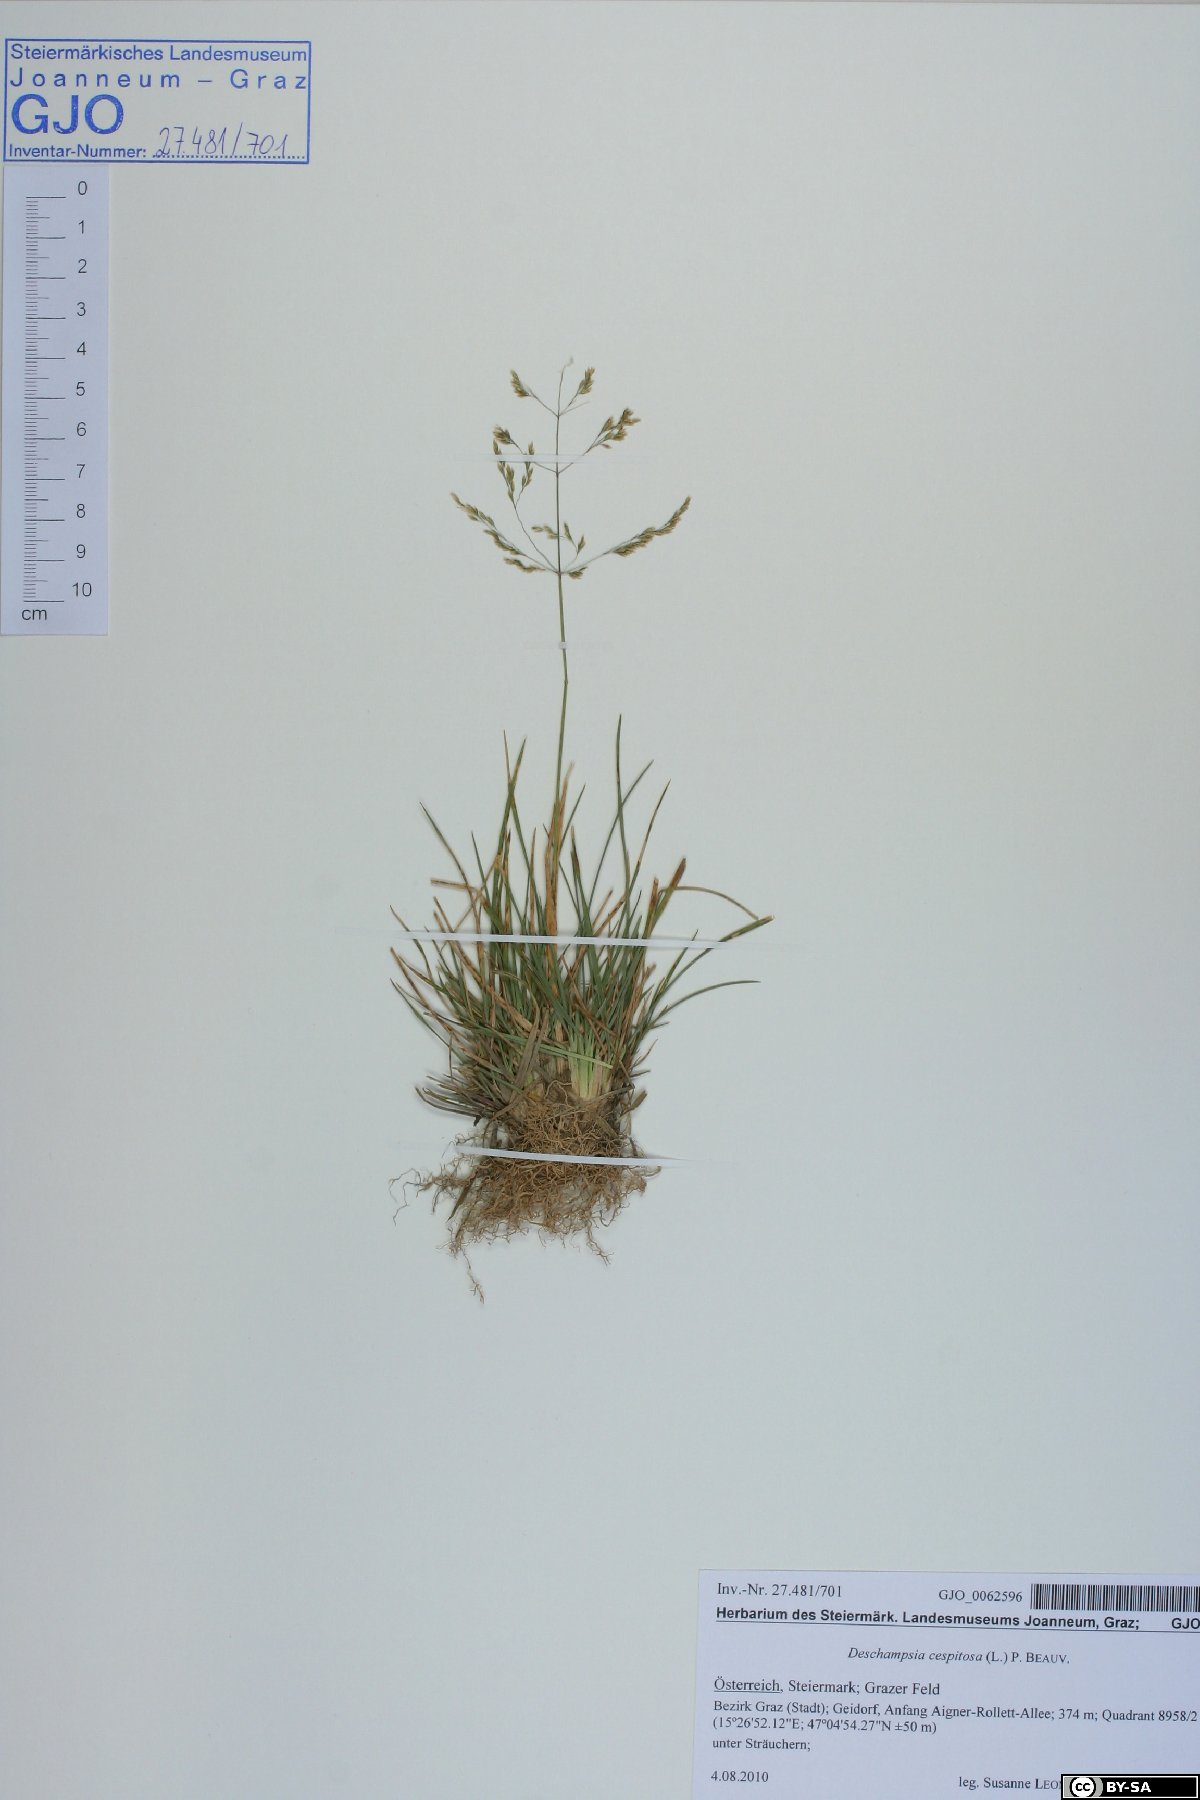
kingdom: Plantae
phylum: Tracheophyta
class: Liliopsida
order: Poales
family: Poaceae
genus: Deschampsia
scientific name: Deschampsia cespitosa
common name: Tufted hair-grass
